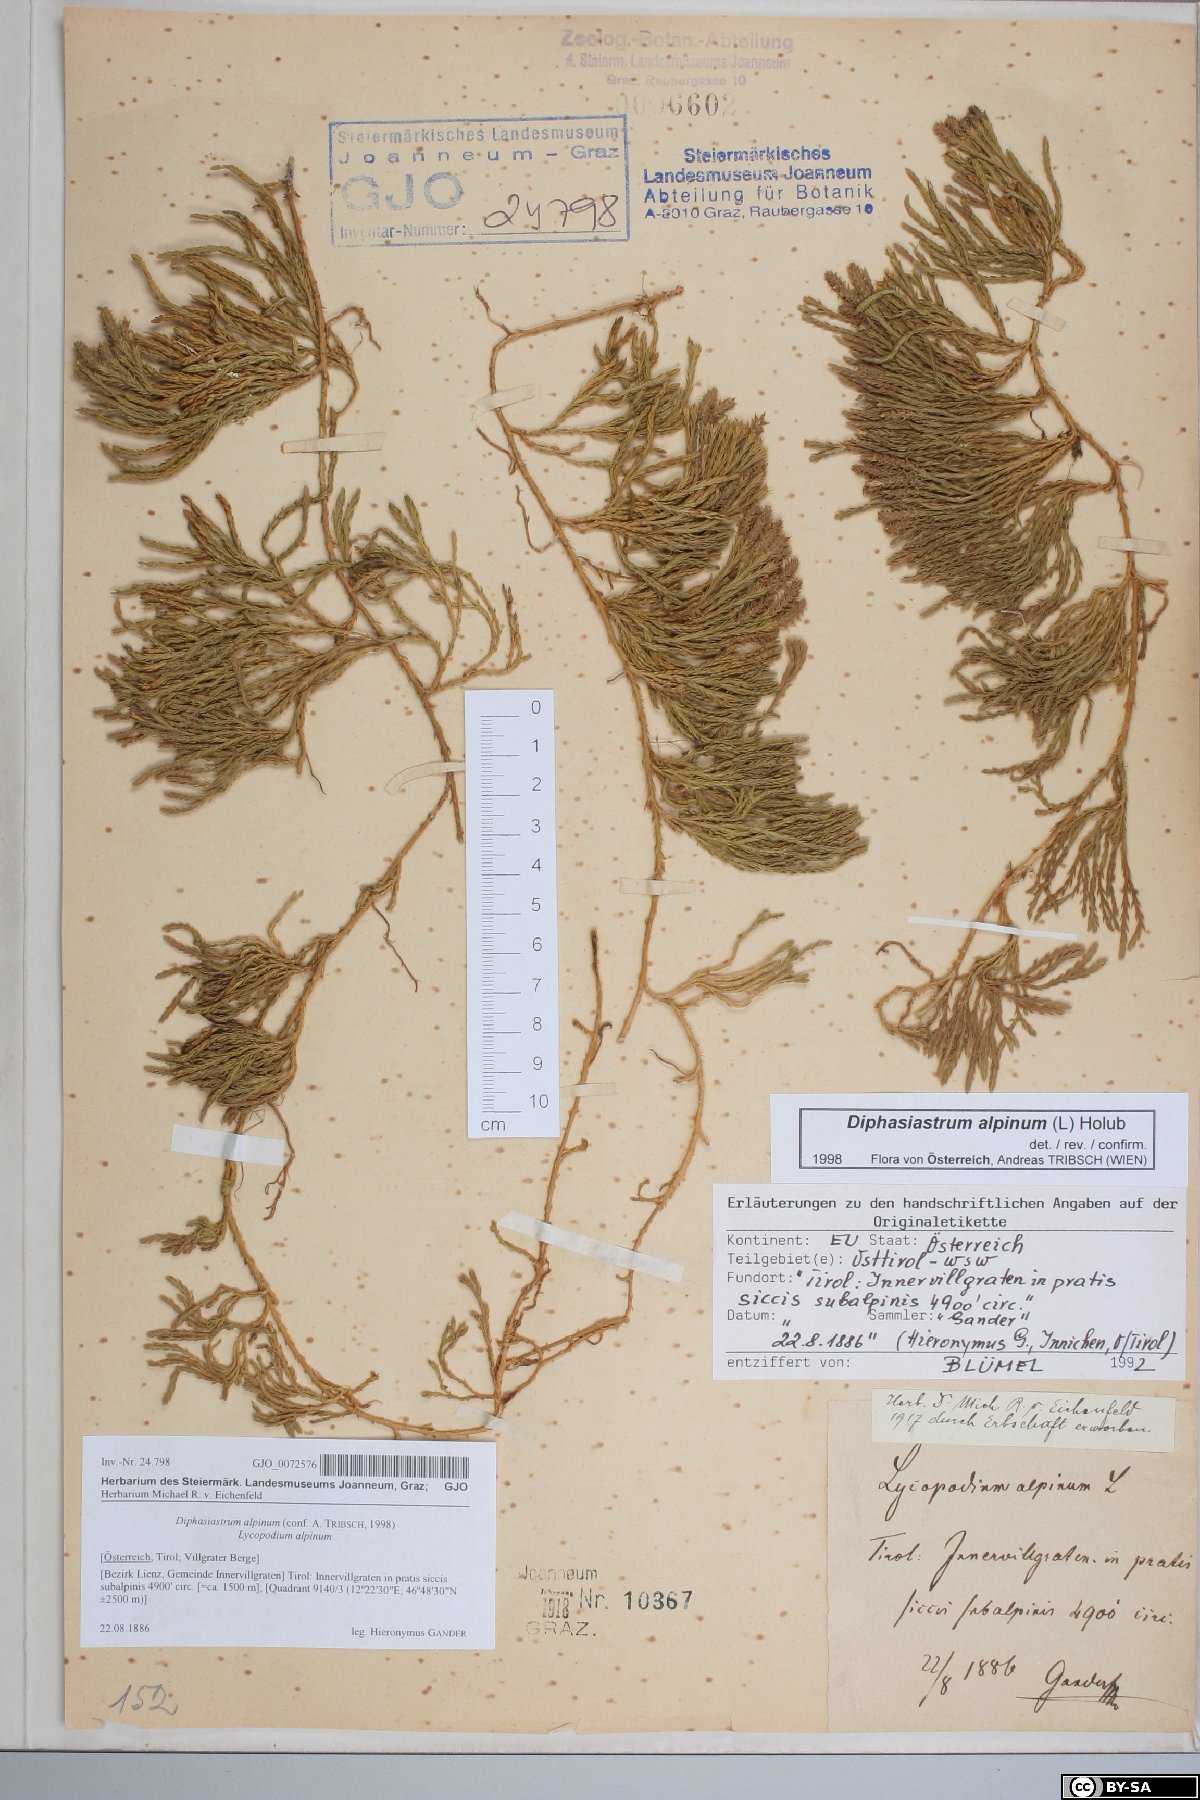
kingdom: Plantae
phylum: Tracheophyta
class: Lycopodiopsida
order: Lycopodiales
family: Lycopodiaceae
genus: Diphasiastrum
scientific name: Diphasiastrum alpinum
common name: Alpine clubmoss
